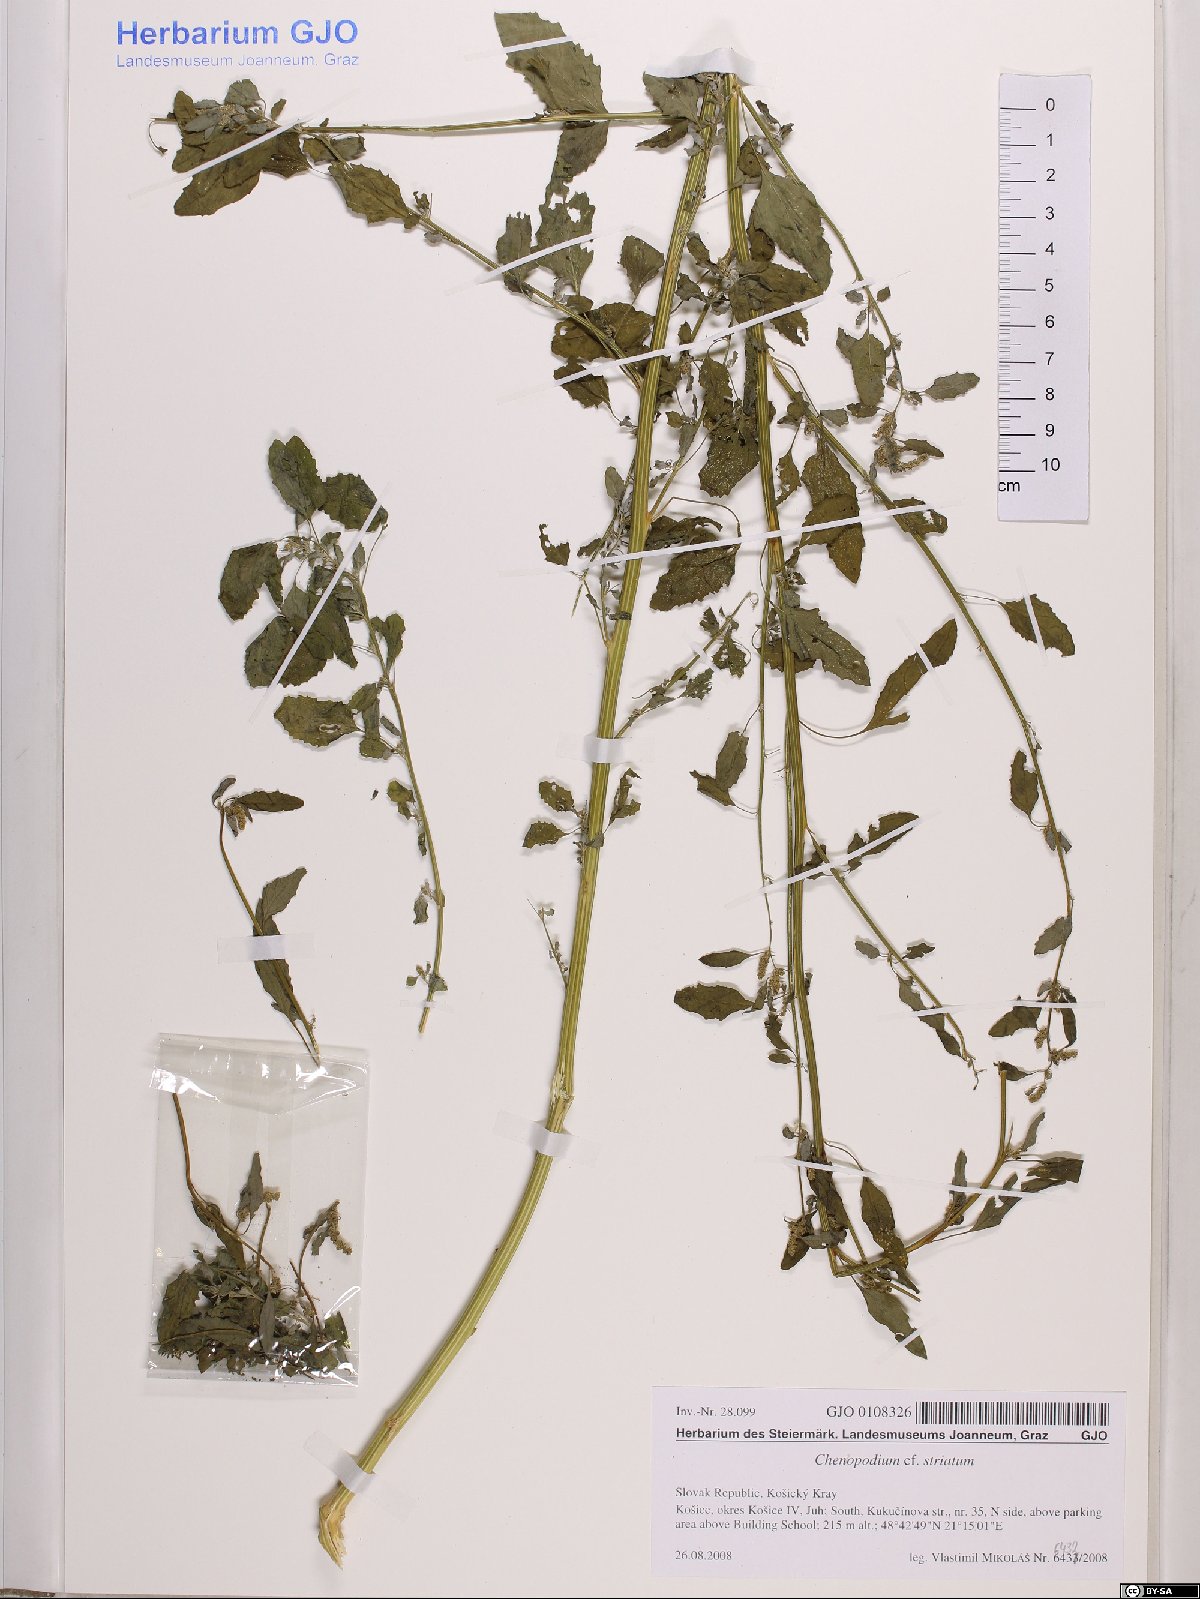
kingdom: Plantae
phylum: Tracheophyta
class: Magnoliopsida
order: Caryophyllales
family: Amaranthaceae
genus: Chenopodium
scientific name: Chenopodium betaceum
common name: Striped goosefoot
